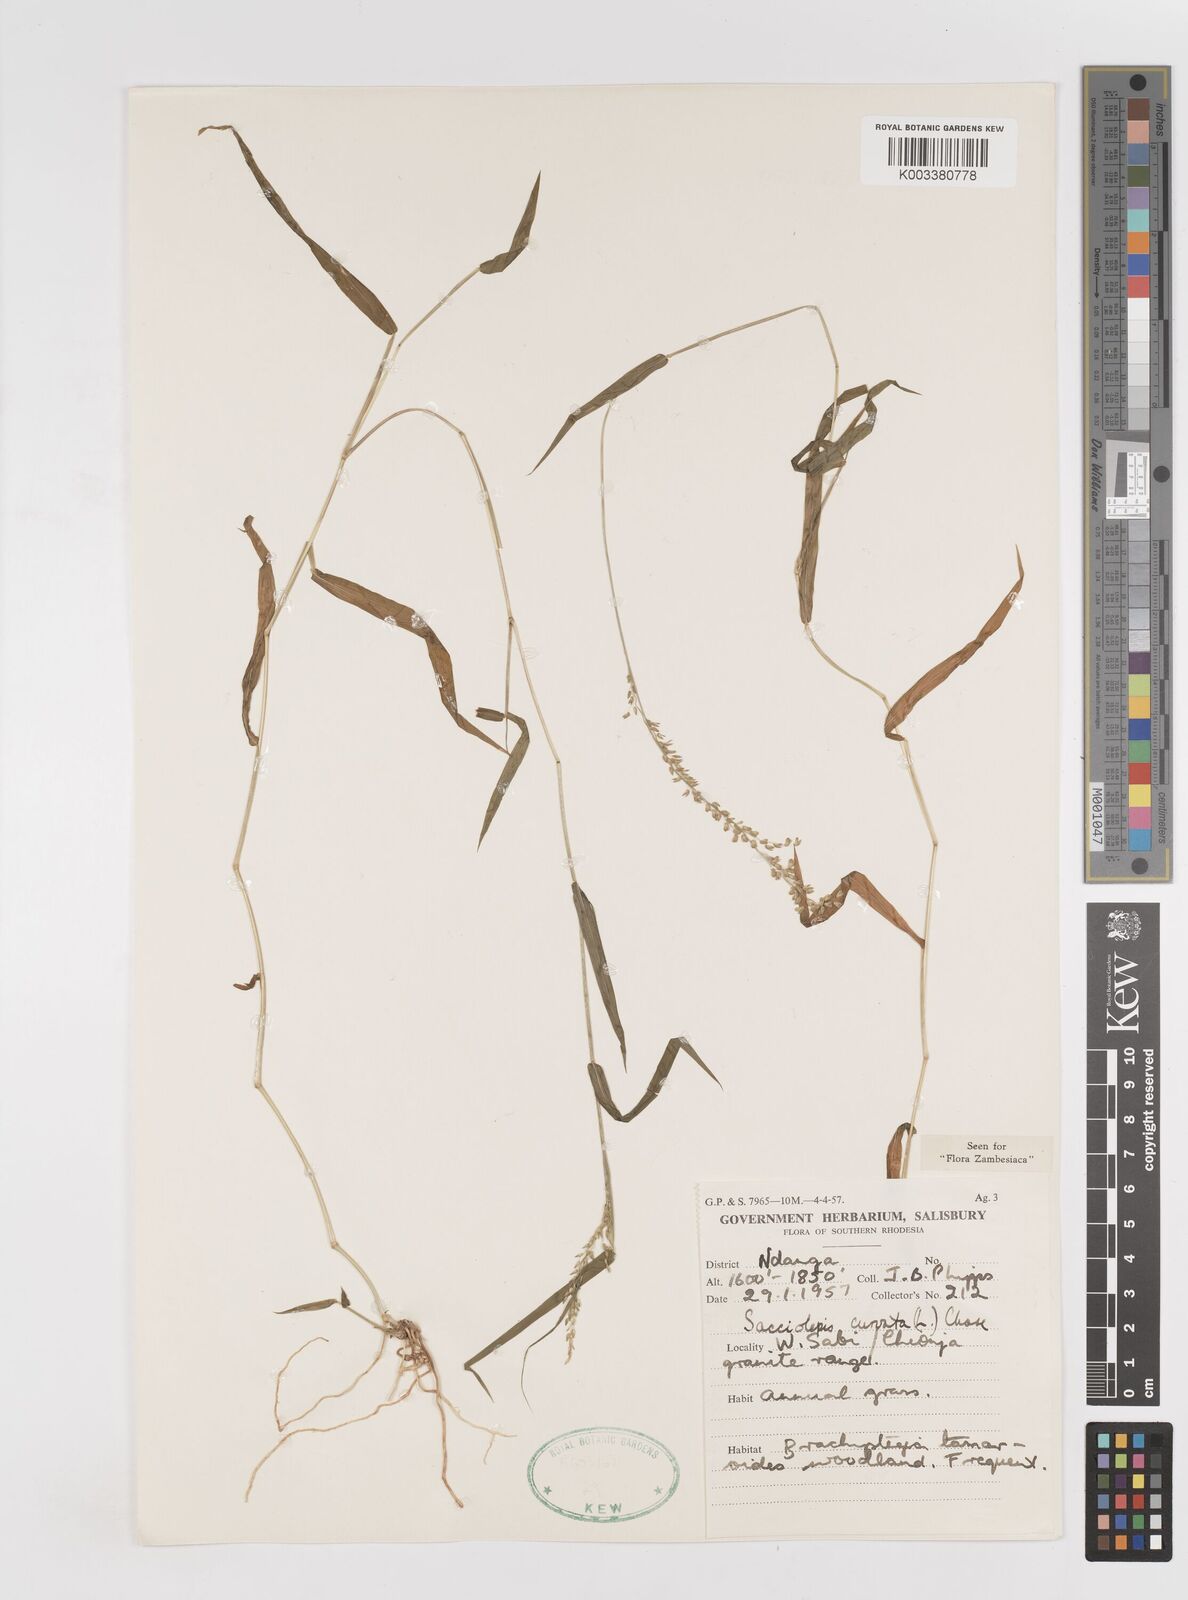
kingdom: Plantae
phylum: Tracheophyta
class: Liliopsida
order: Poales
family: Poaceae
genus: Sacciolepis
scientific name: Sacciolepis curvata
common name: Forest hood grass
